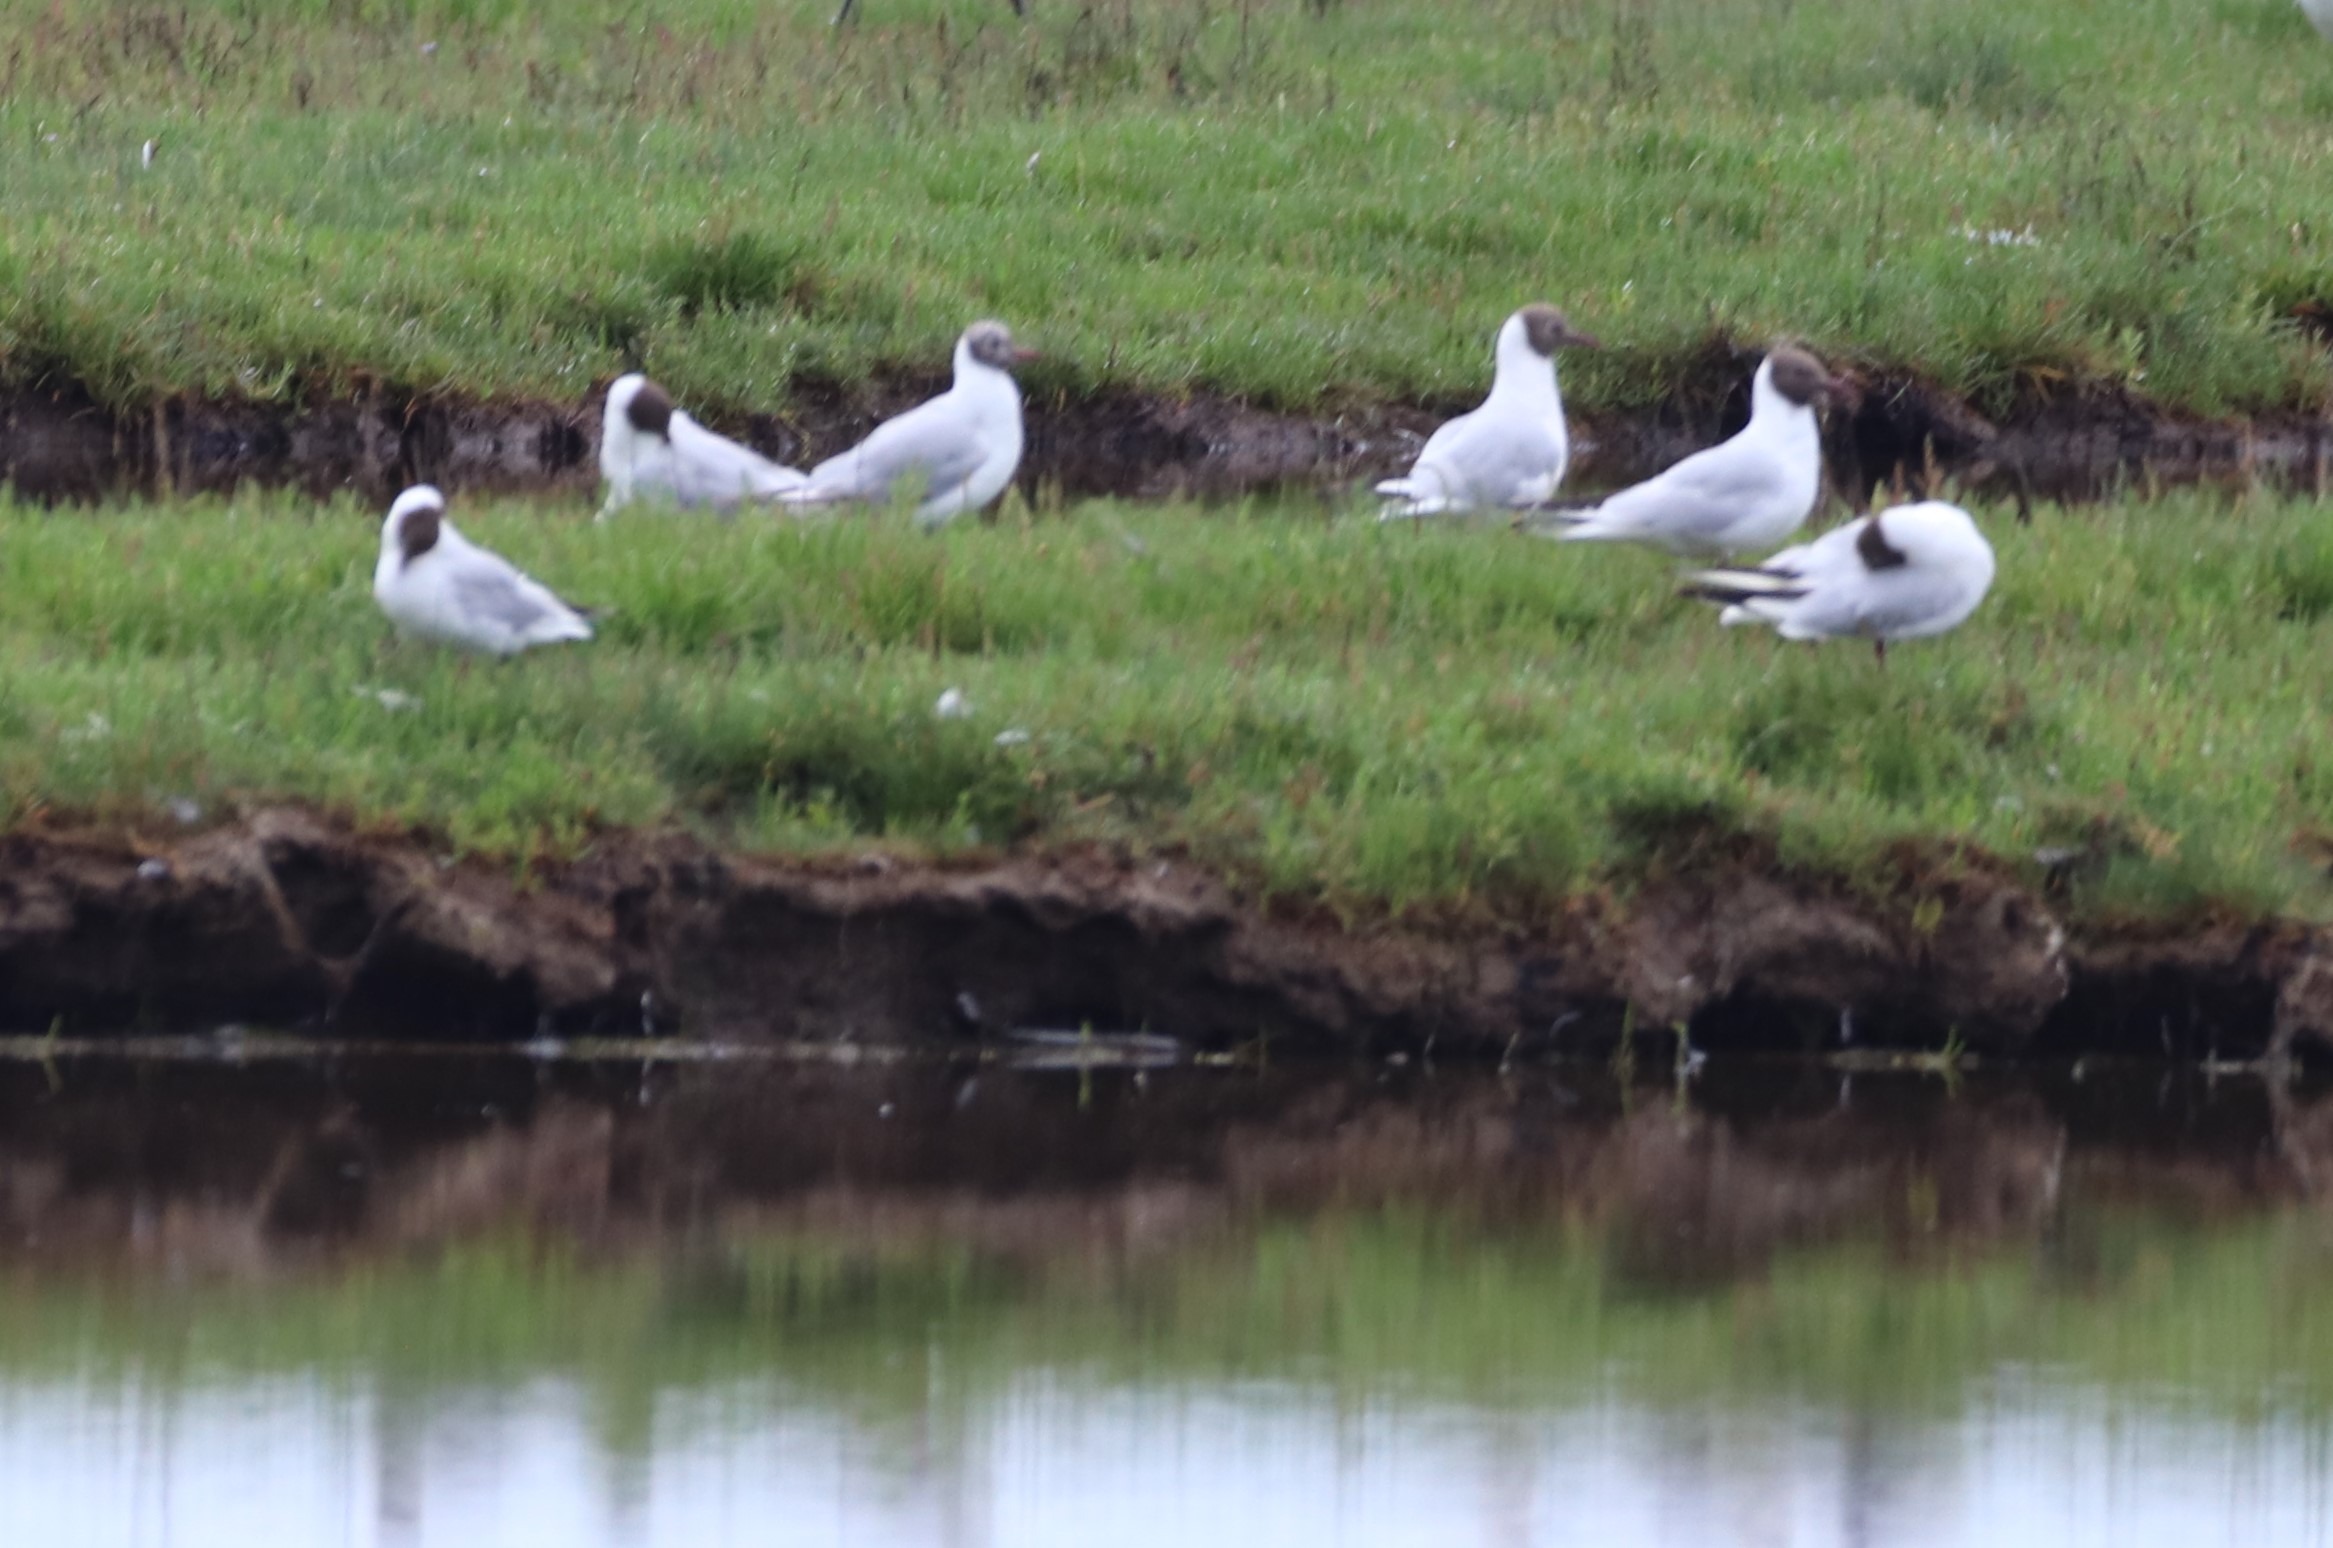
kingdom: Animalia
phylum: Chordata
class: Aves
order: Charadriiformes
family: Laridae
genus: Chroicocephalus
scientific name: Chroicocephalus ridibundus
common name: Hættemåge
